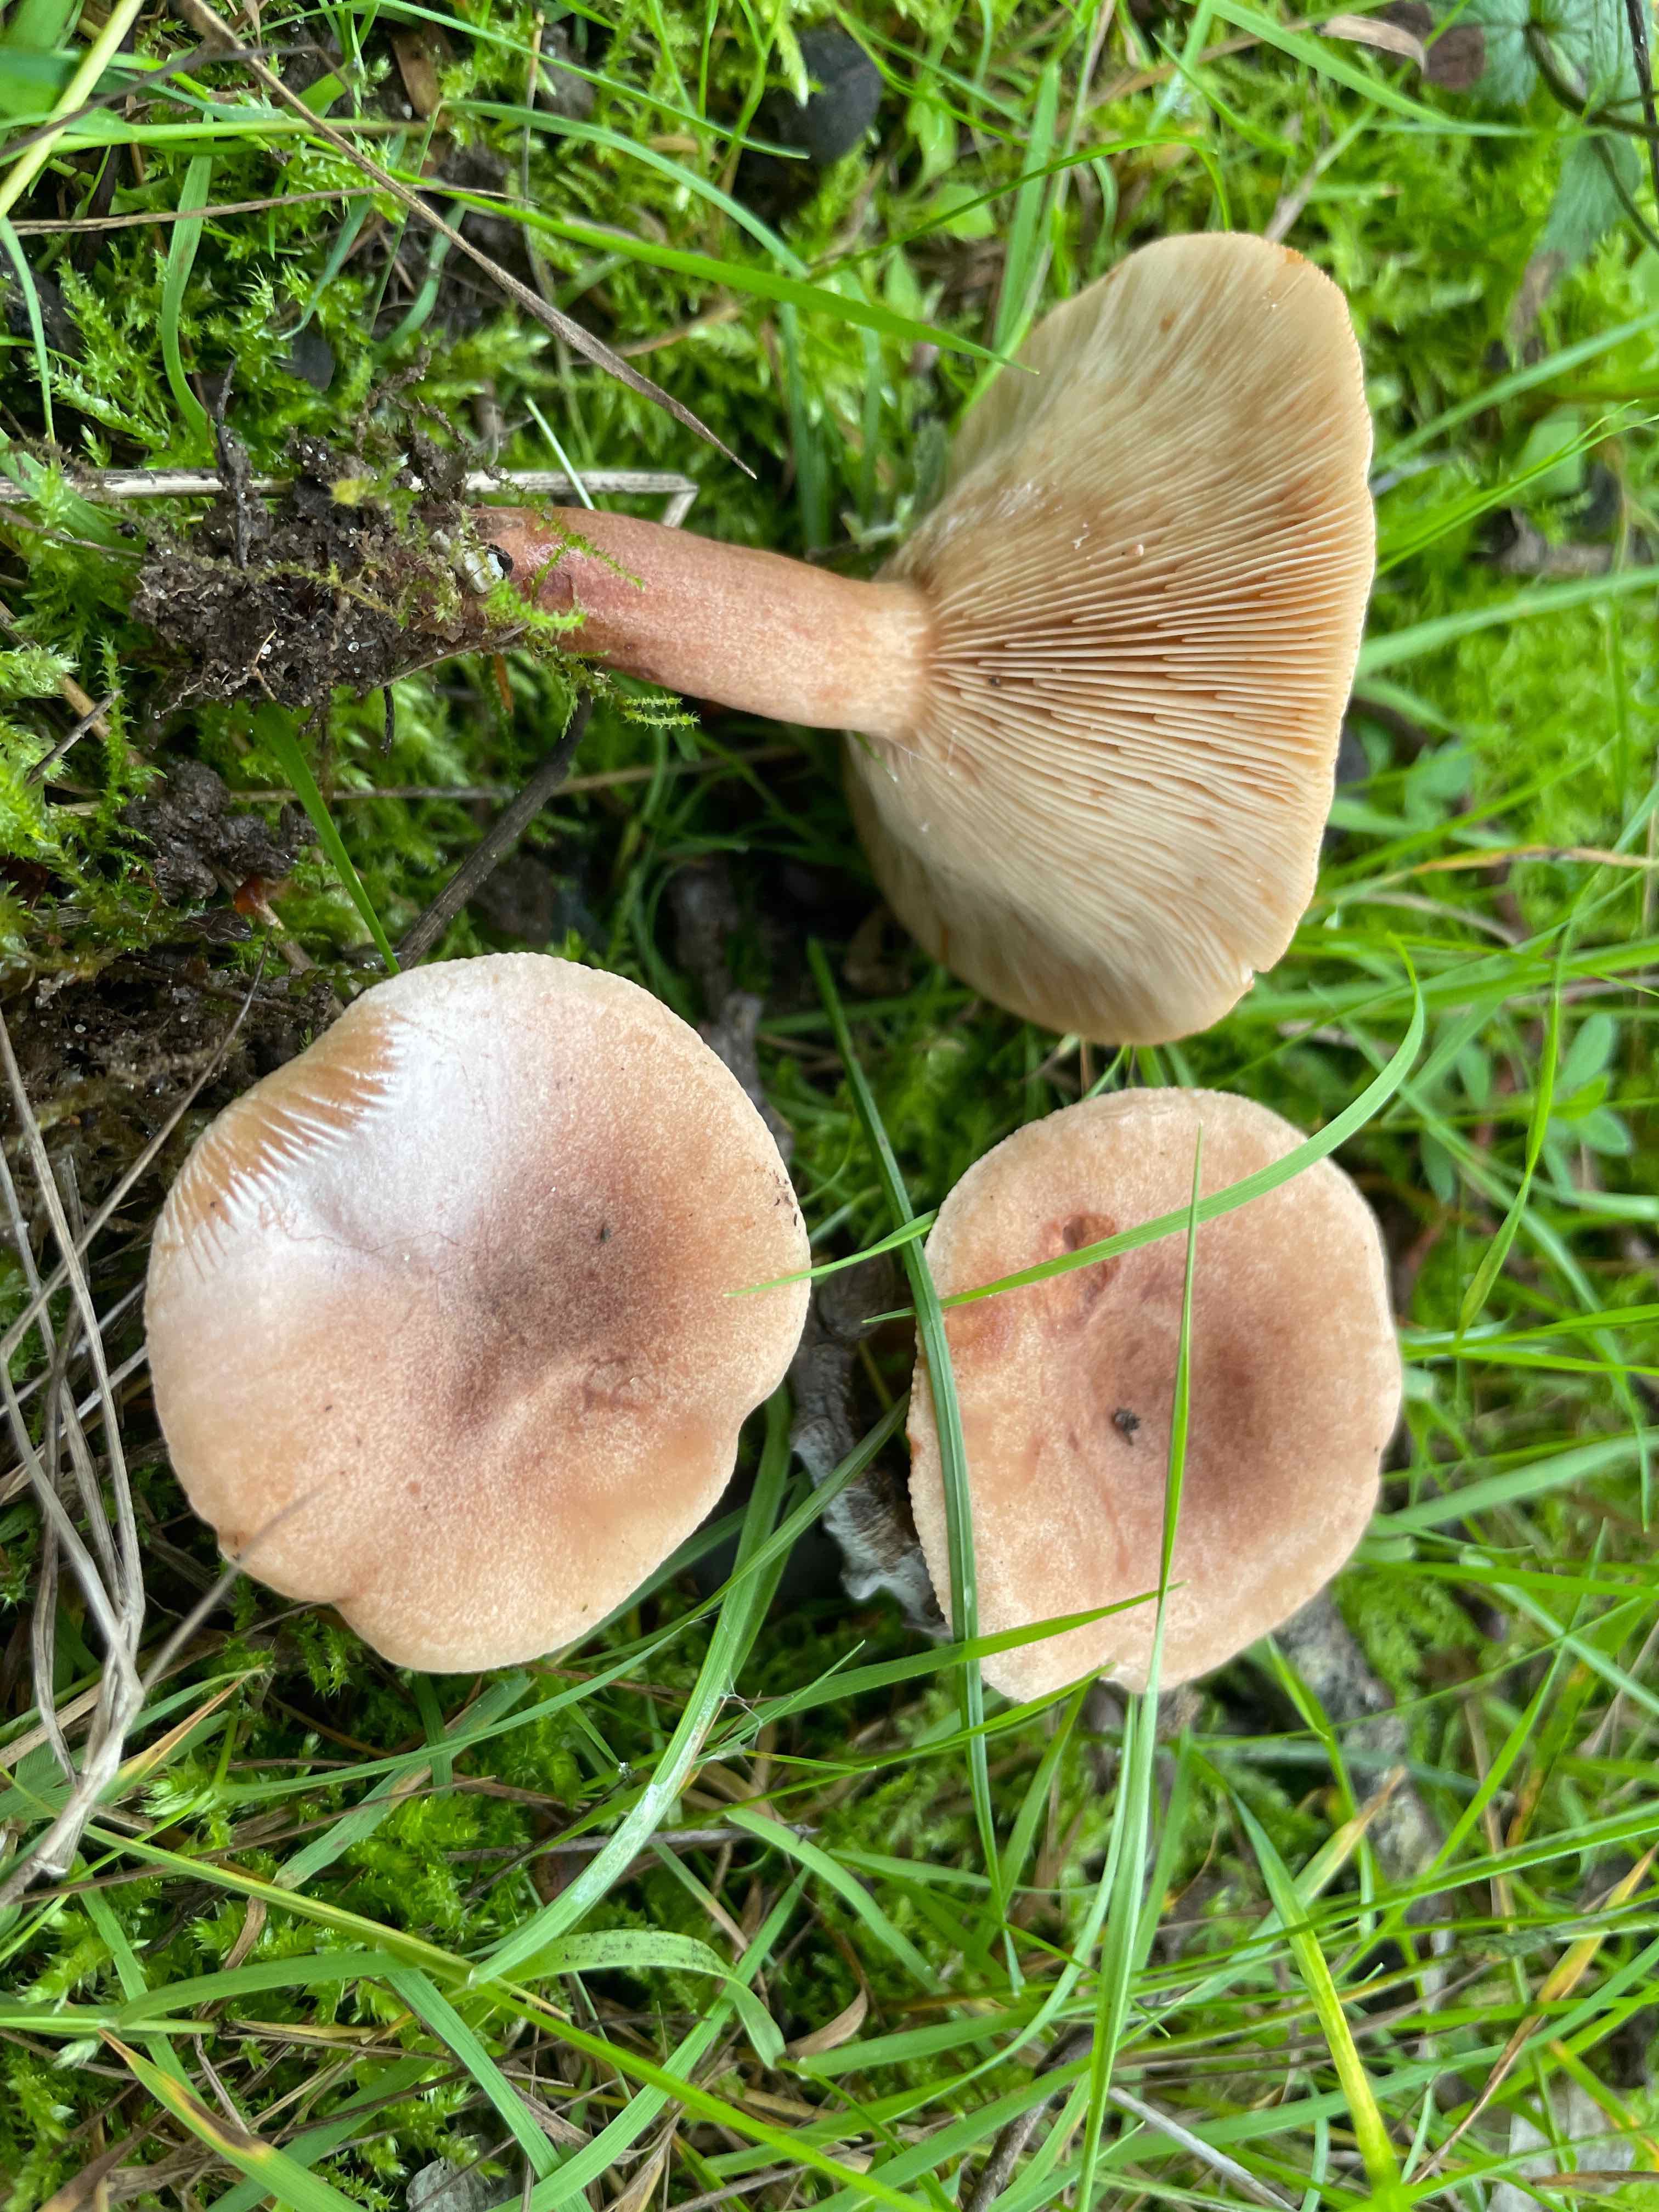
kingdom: Fungi
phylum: Basidiomycota
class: Agaricomycetes
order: Russulales
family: Russulaceae
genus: Lactarius
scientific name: Lactarius quietus
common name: ege-mælkehat
